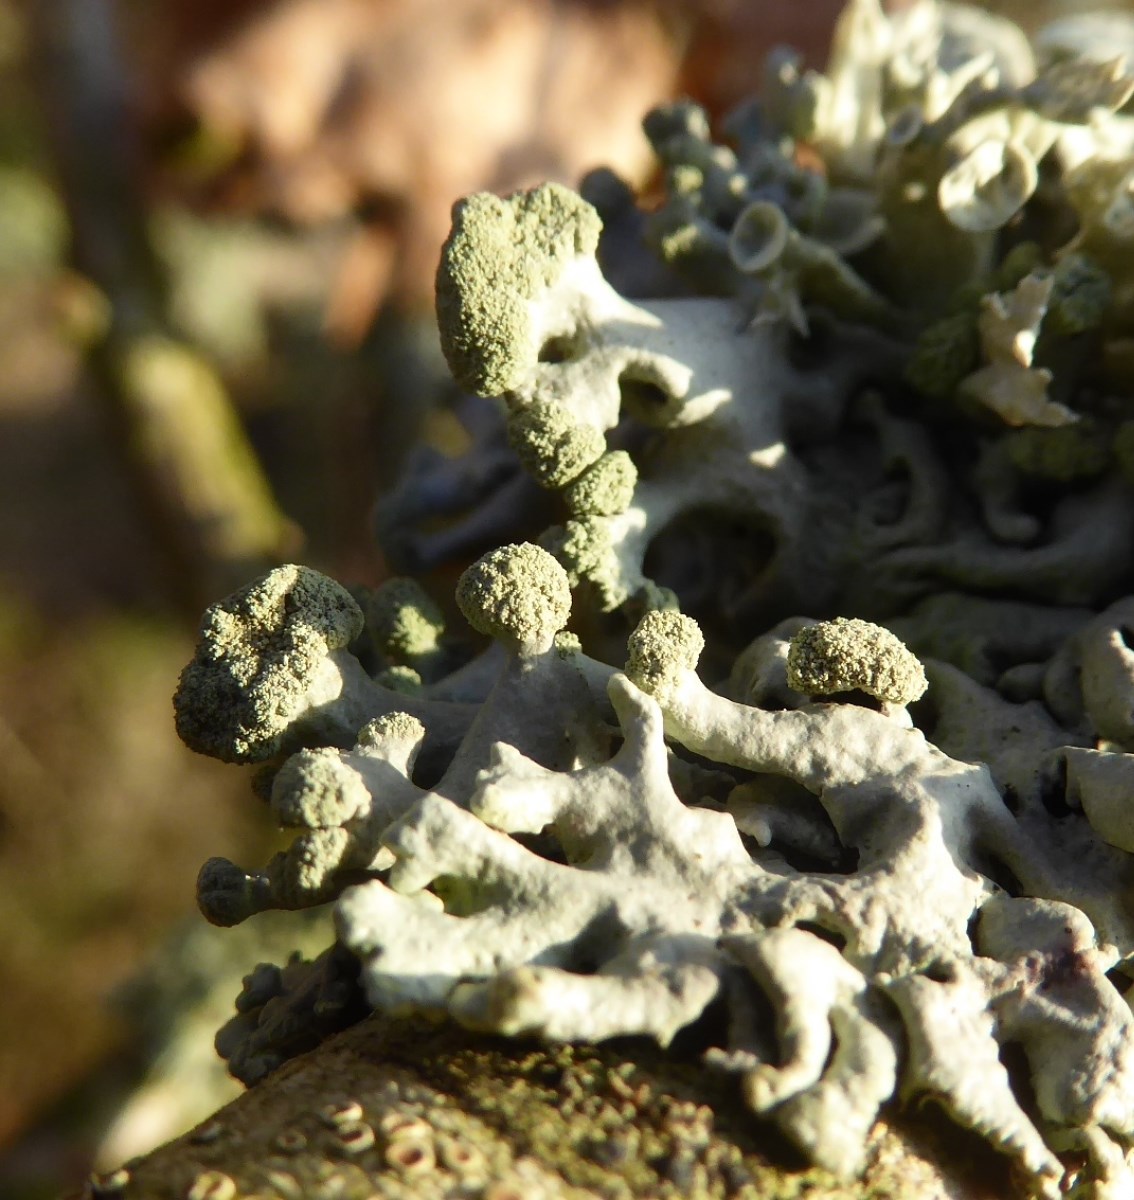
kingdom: Fungi
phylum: Ascomycota
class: Lecanoromycetes
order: Lecanorales
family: Parmeliaceae
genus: Hypogymnia
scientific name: Hypogymnia tubulosa
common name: finger-kvistlav
